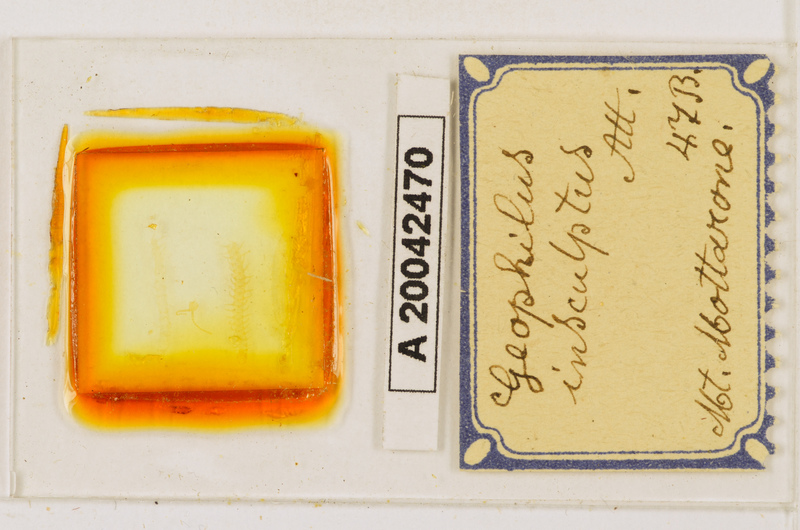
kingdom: Animalia
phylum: Arthropoda
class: Chilopoda
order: Geophilomorpha
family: Geophilidae
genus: Geophilus
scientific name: Geophilus insculptus
